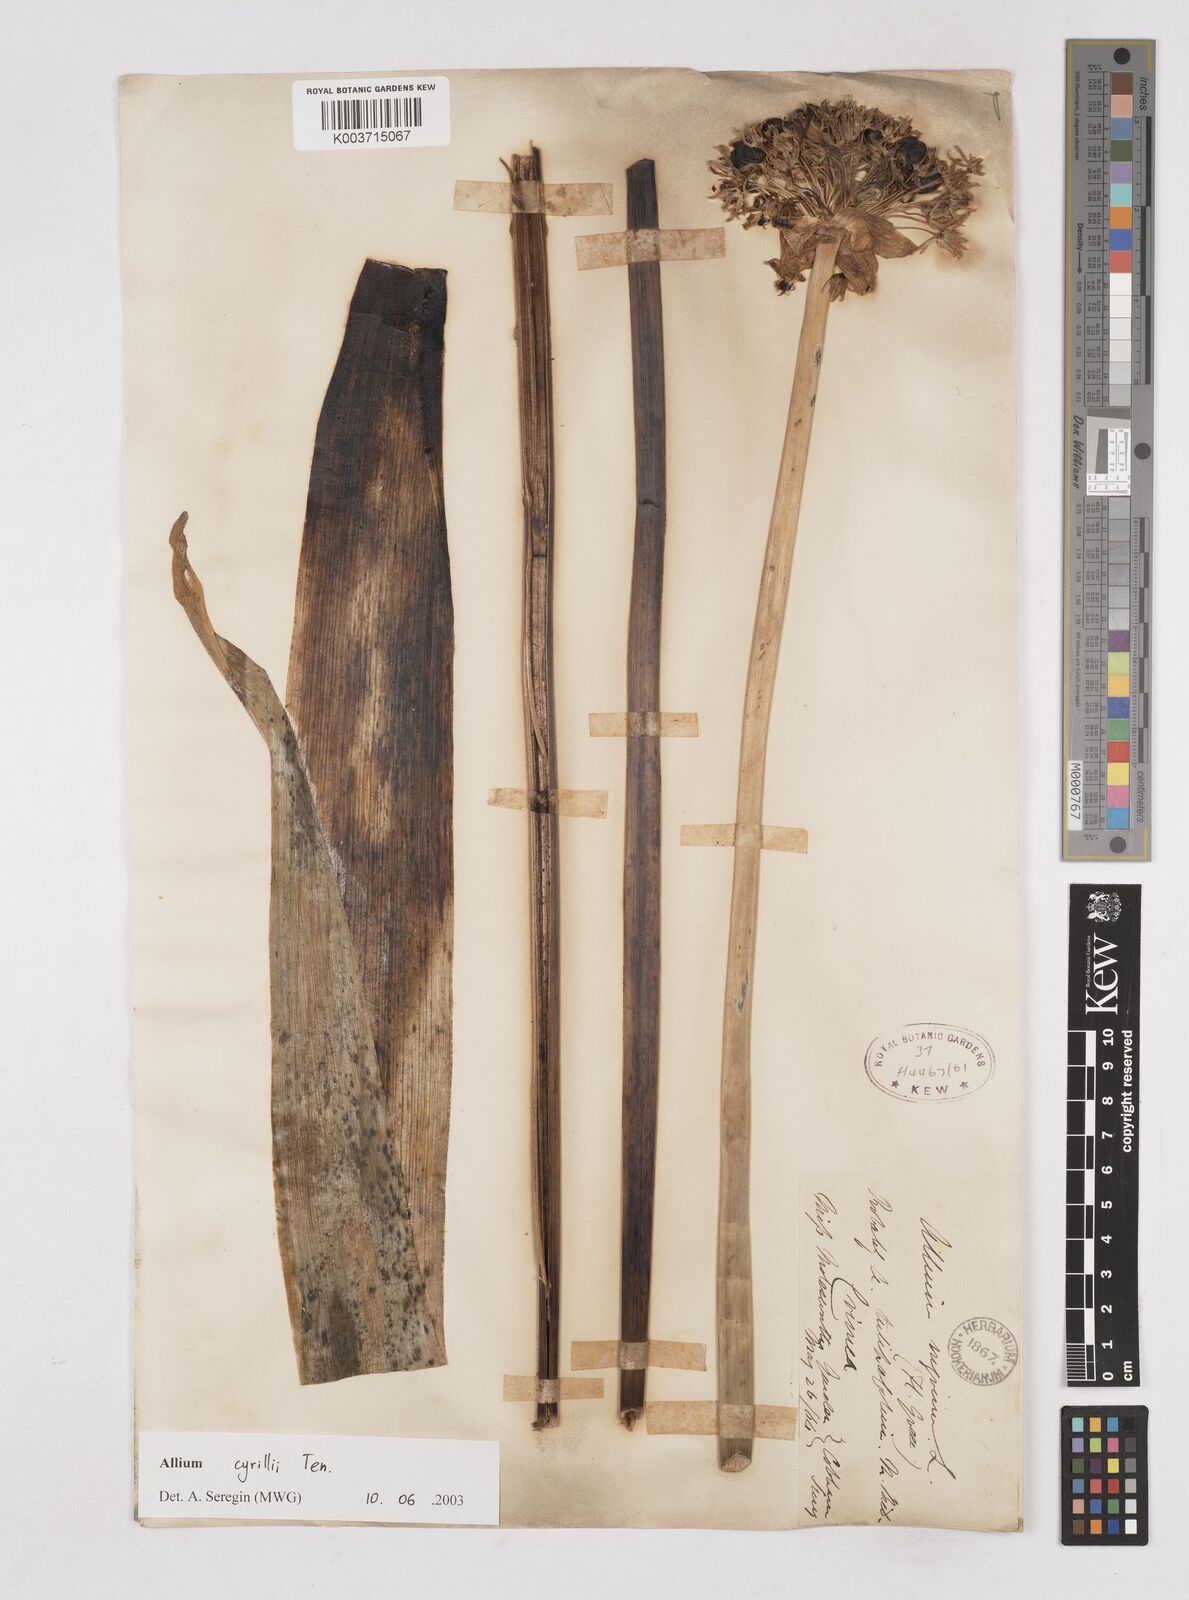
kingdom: Plantae
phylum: Tracheophyta
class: Liliopsida
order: Asparagales
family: Amaryllidaceae
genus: Allium
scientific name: Allium cyrilli
